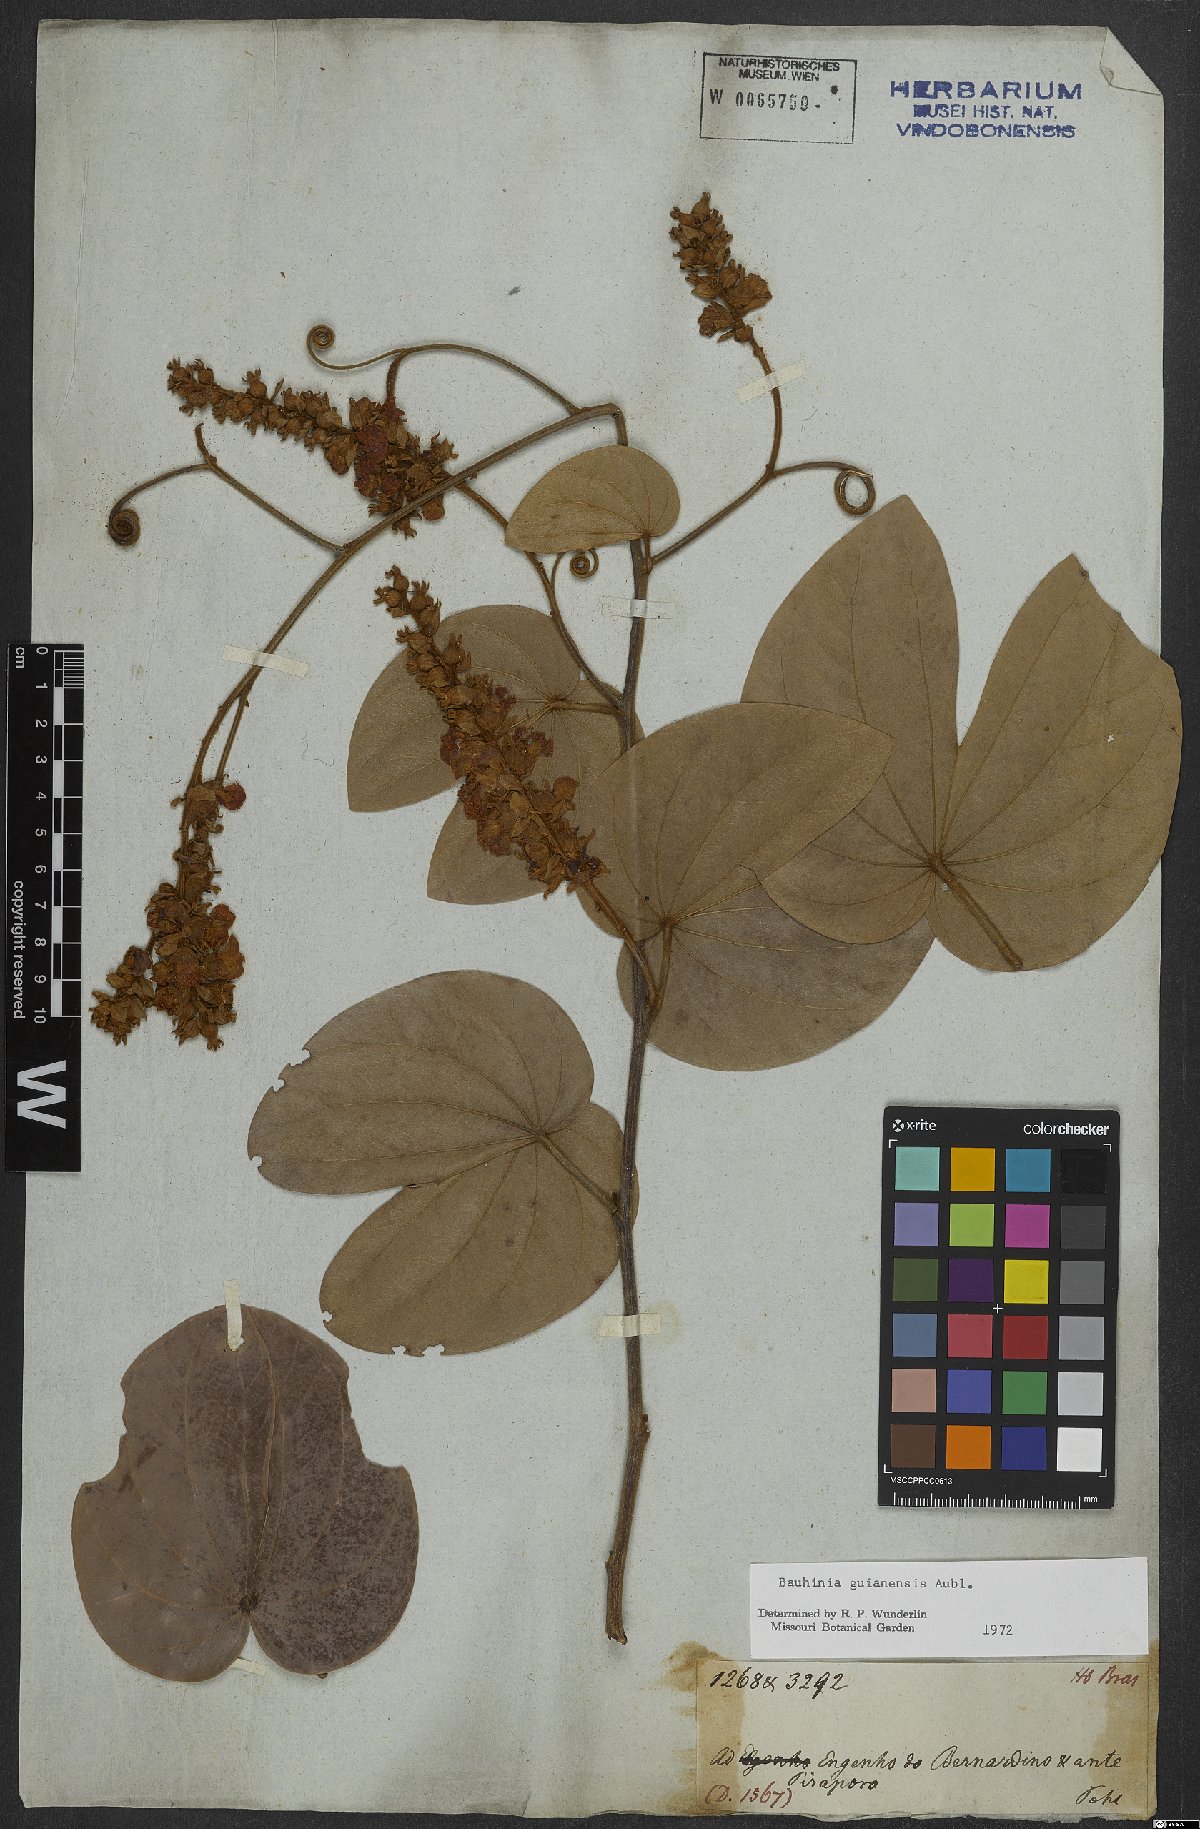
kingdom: Plantae
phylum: Tracheophyta
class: Magnoliopsida
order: Fabales
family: Fabaceae
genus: Schnella
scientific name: Schnella guianensis
